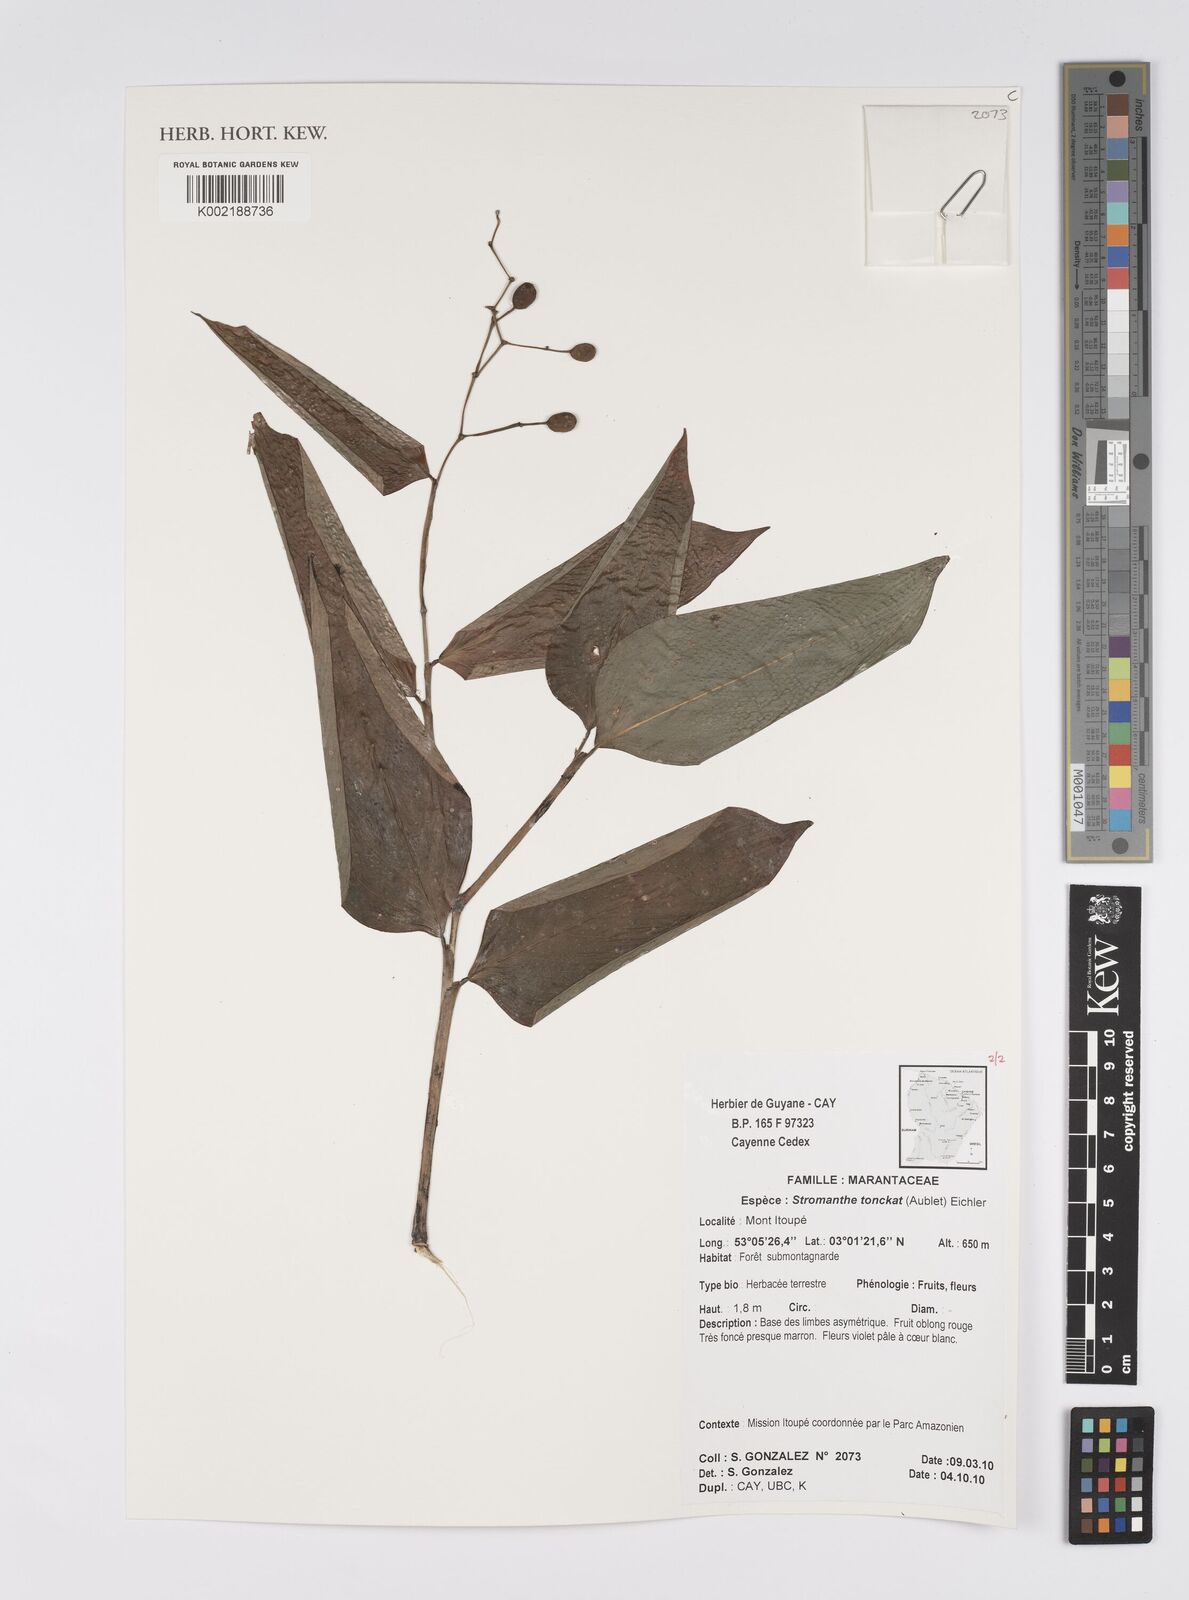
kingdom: Plantae
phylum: Tracheophyta
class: Liliopsida
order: Zingiberales
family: Marantaceae
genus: Stromanthe
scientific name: Stromanthe tonckat
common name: Stromanthe
